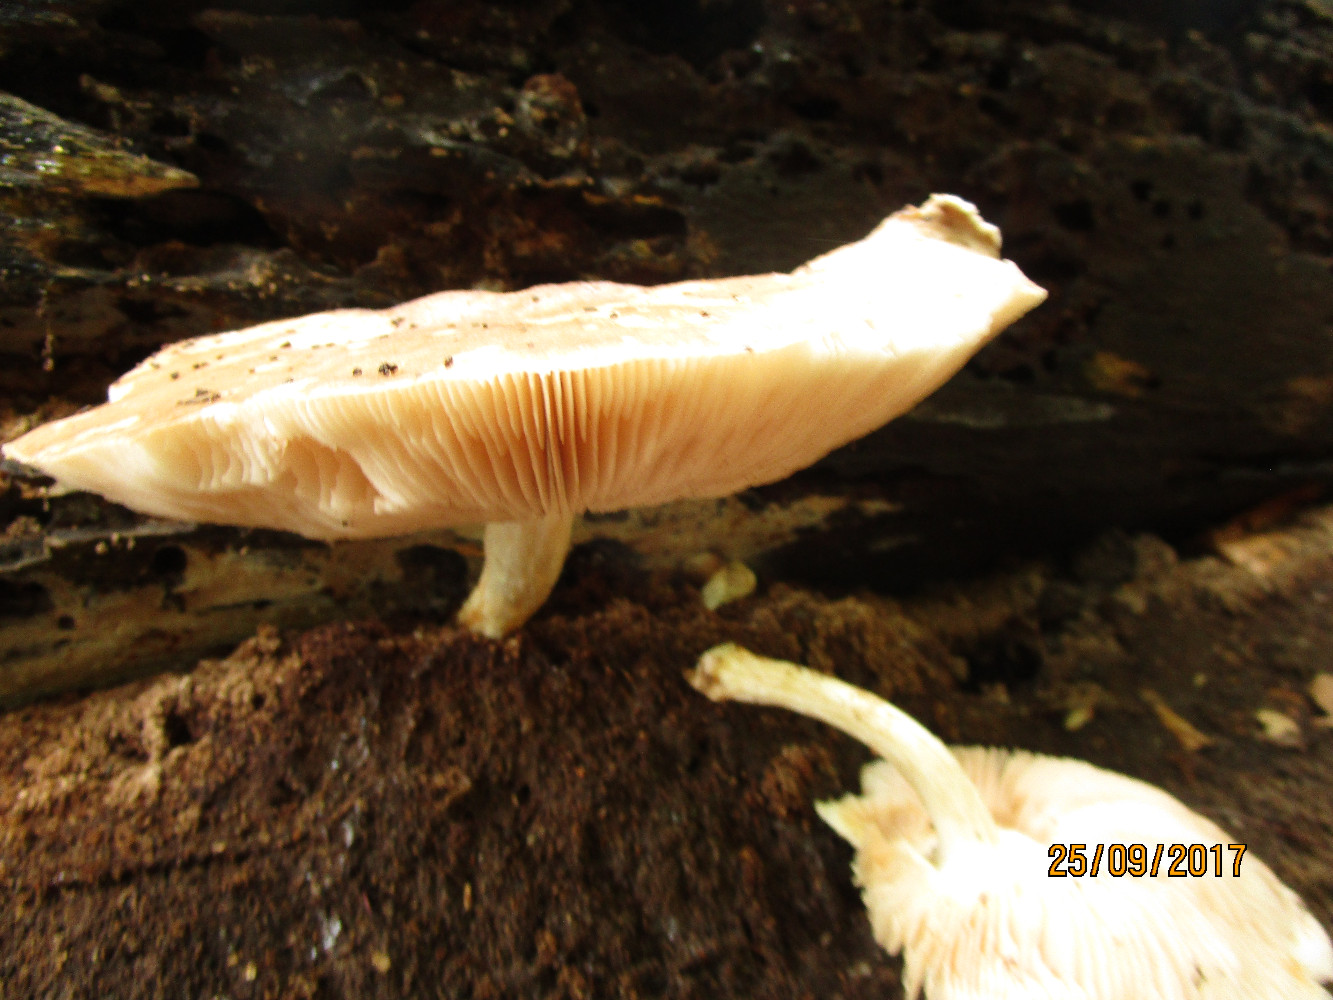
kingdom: Fungi
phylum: Basidiomycota
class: Agaricomycetes
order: Agaricales
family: Pluteaceae
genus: Pluteus
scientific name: Pluteus salicinus
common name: stiv skærmhat
